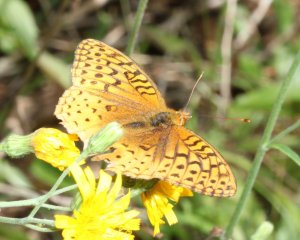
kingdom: Animalia
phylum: Arthropoda
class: Insecta
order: Lepidoptera
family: Nymphalidae
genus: Speyeria
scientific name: Speyeria cybele
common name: Great Spangled Fritillary
